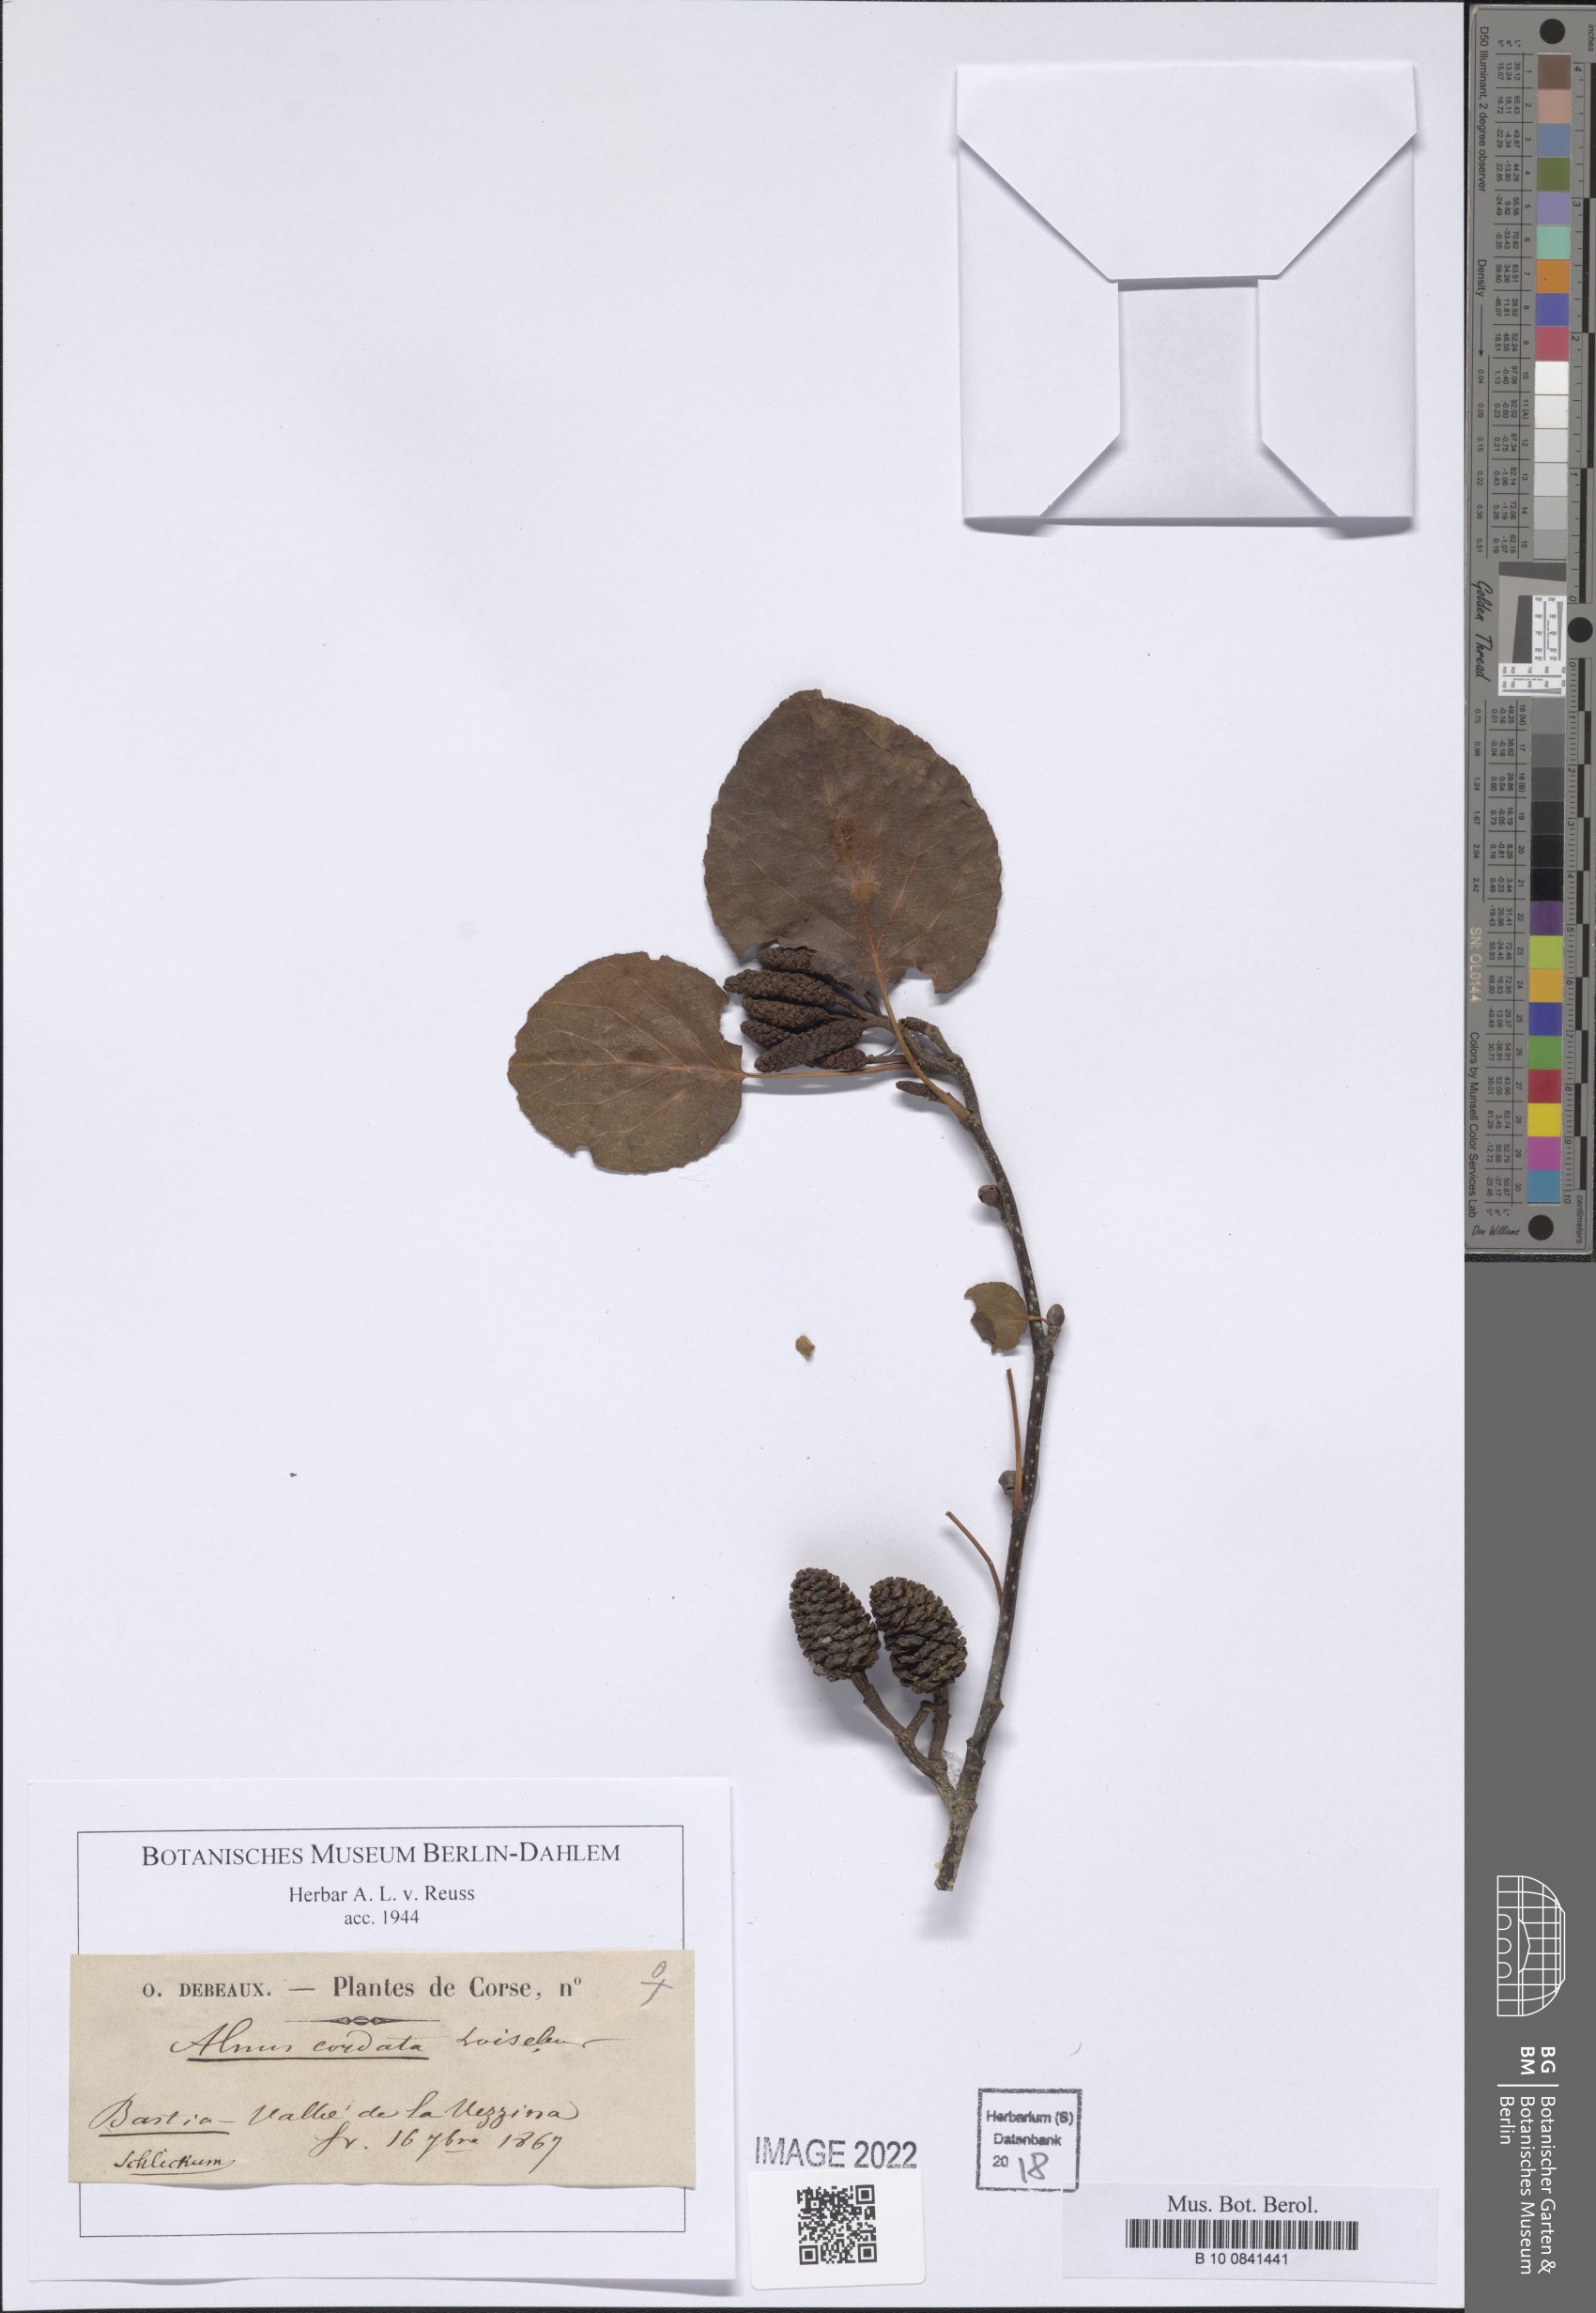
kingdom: Plantae
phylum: Tracheophyta
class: Magnoliopsida
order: Fagales
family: Betulaceae
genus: Alnus
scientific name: Alnus cordata
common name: Italian alder
